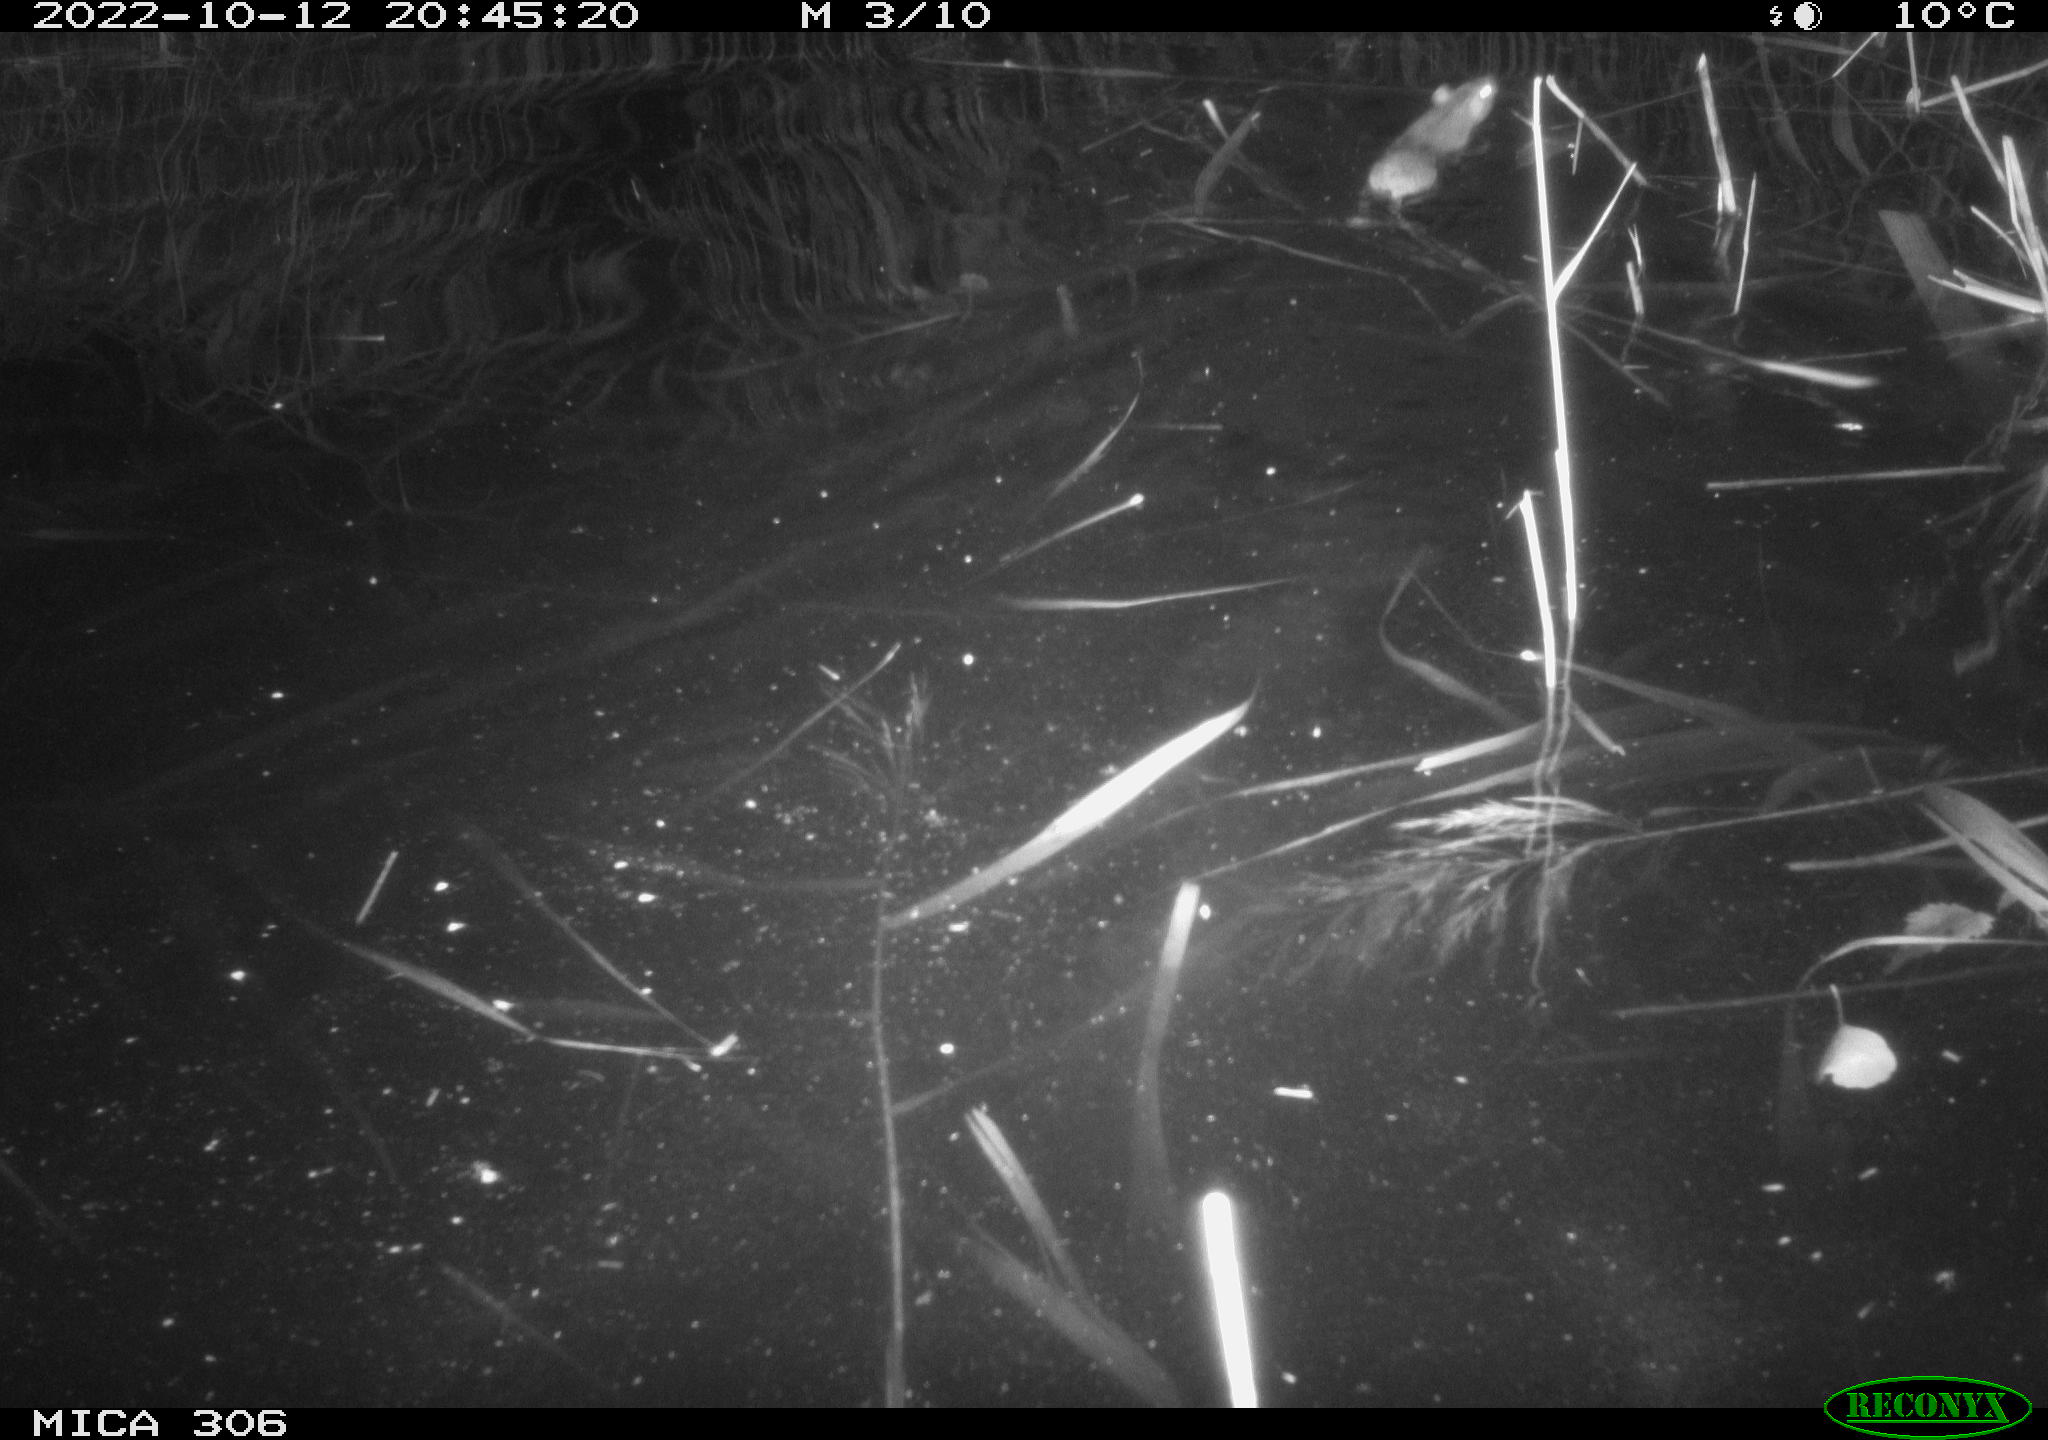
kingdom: Animalia
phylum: Chordata
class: Mammalia
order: Rodentia
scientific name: Rodentia
